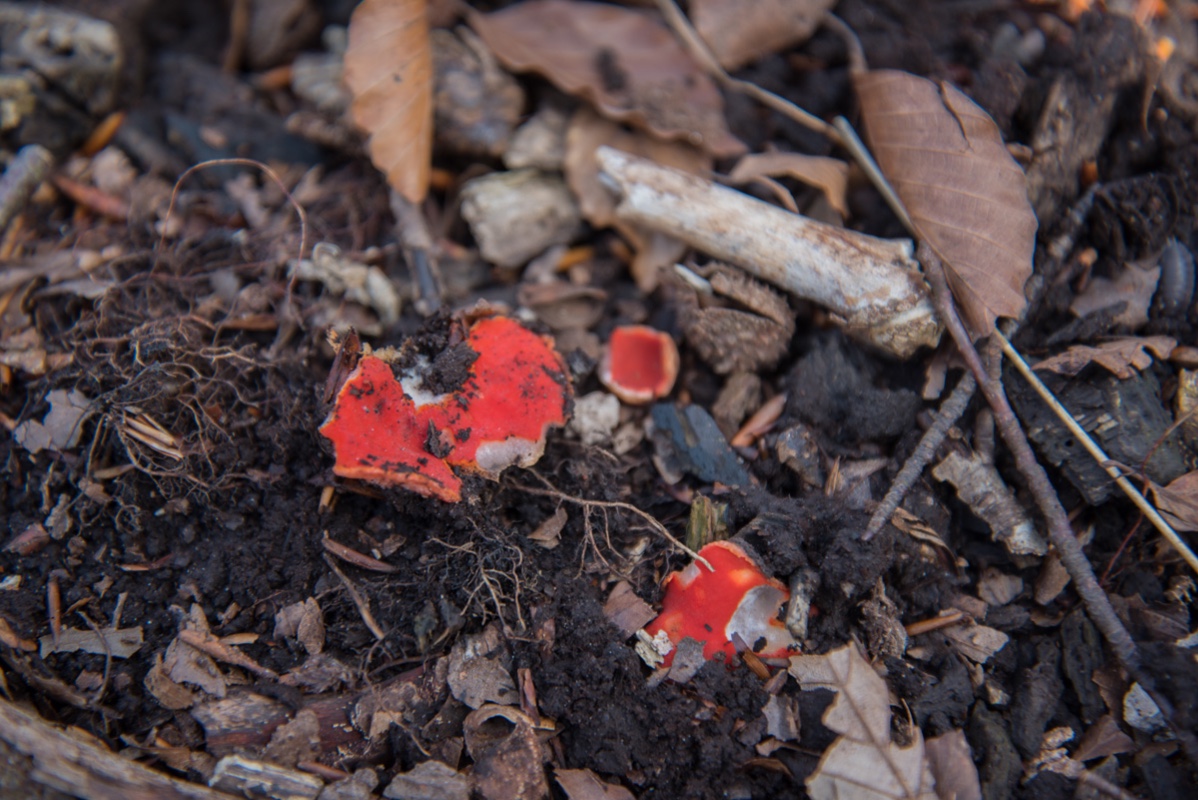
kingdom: Fungi
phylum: Ascomycota
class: Pezizomycetes
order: Pezizales
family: Sarcoscyphaceae
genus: Sarcoscypha
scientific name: Sarcoscypha coccinea
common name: skarlagen-pragtbæger
